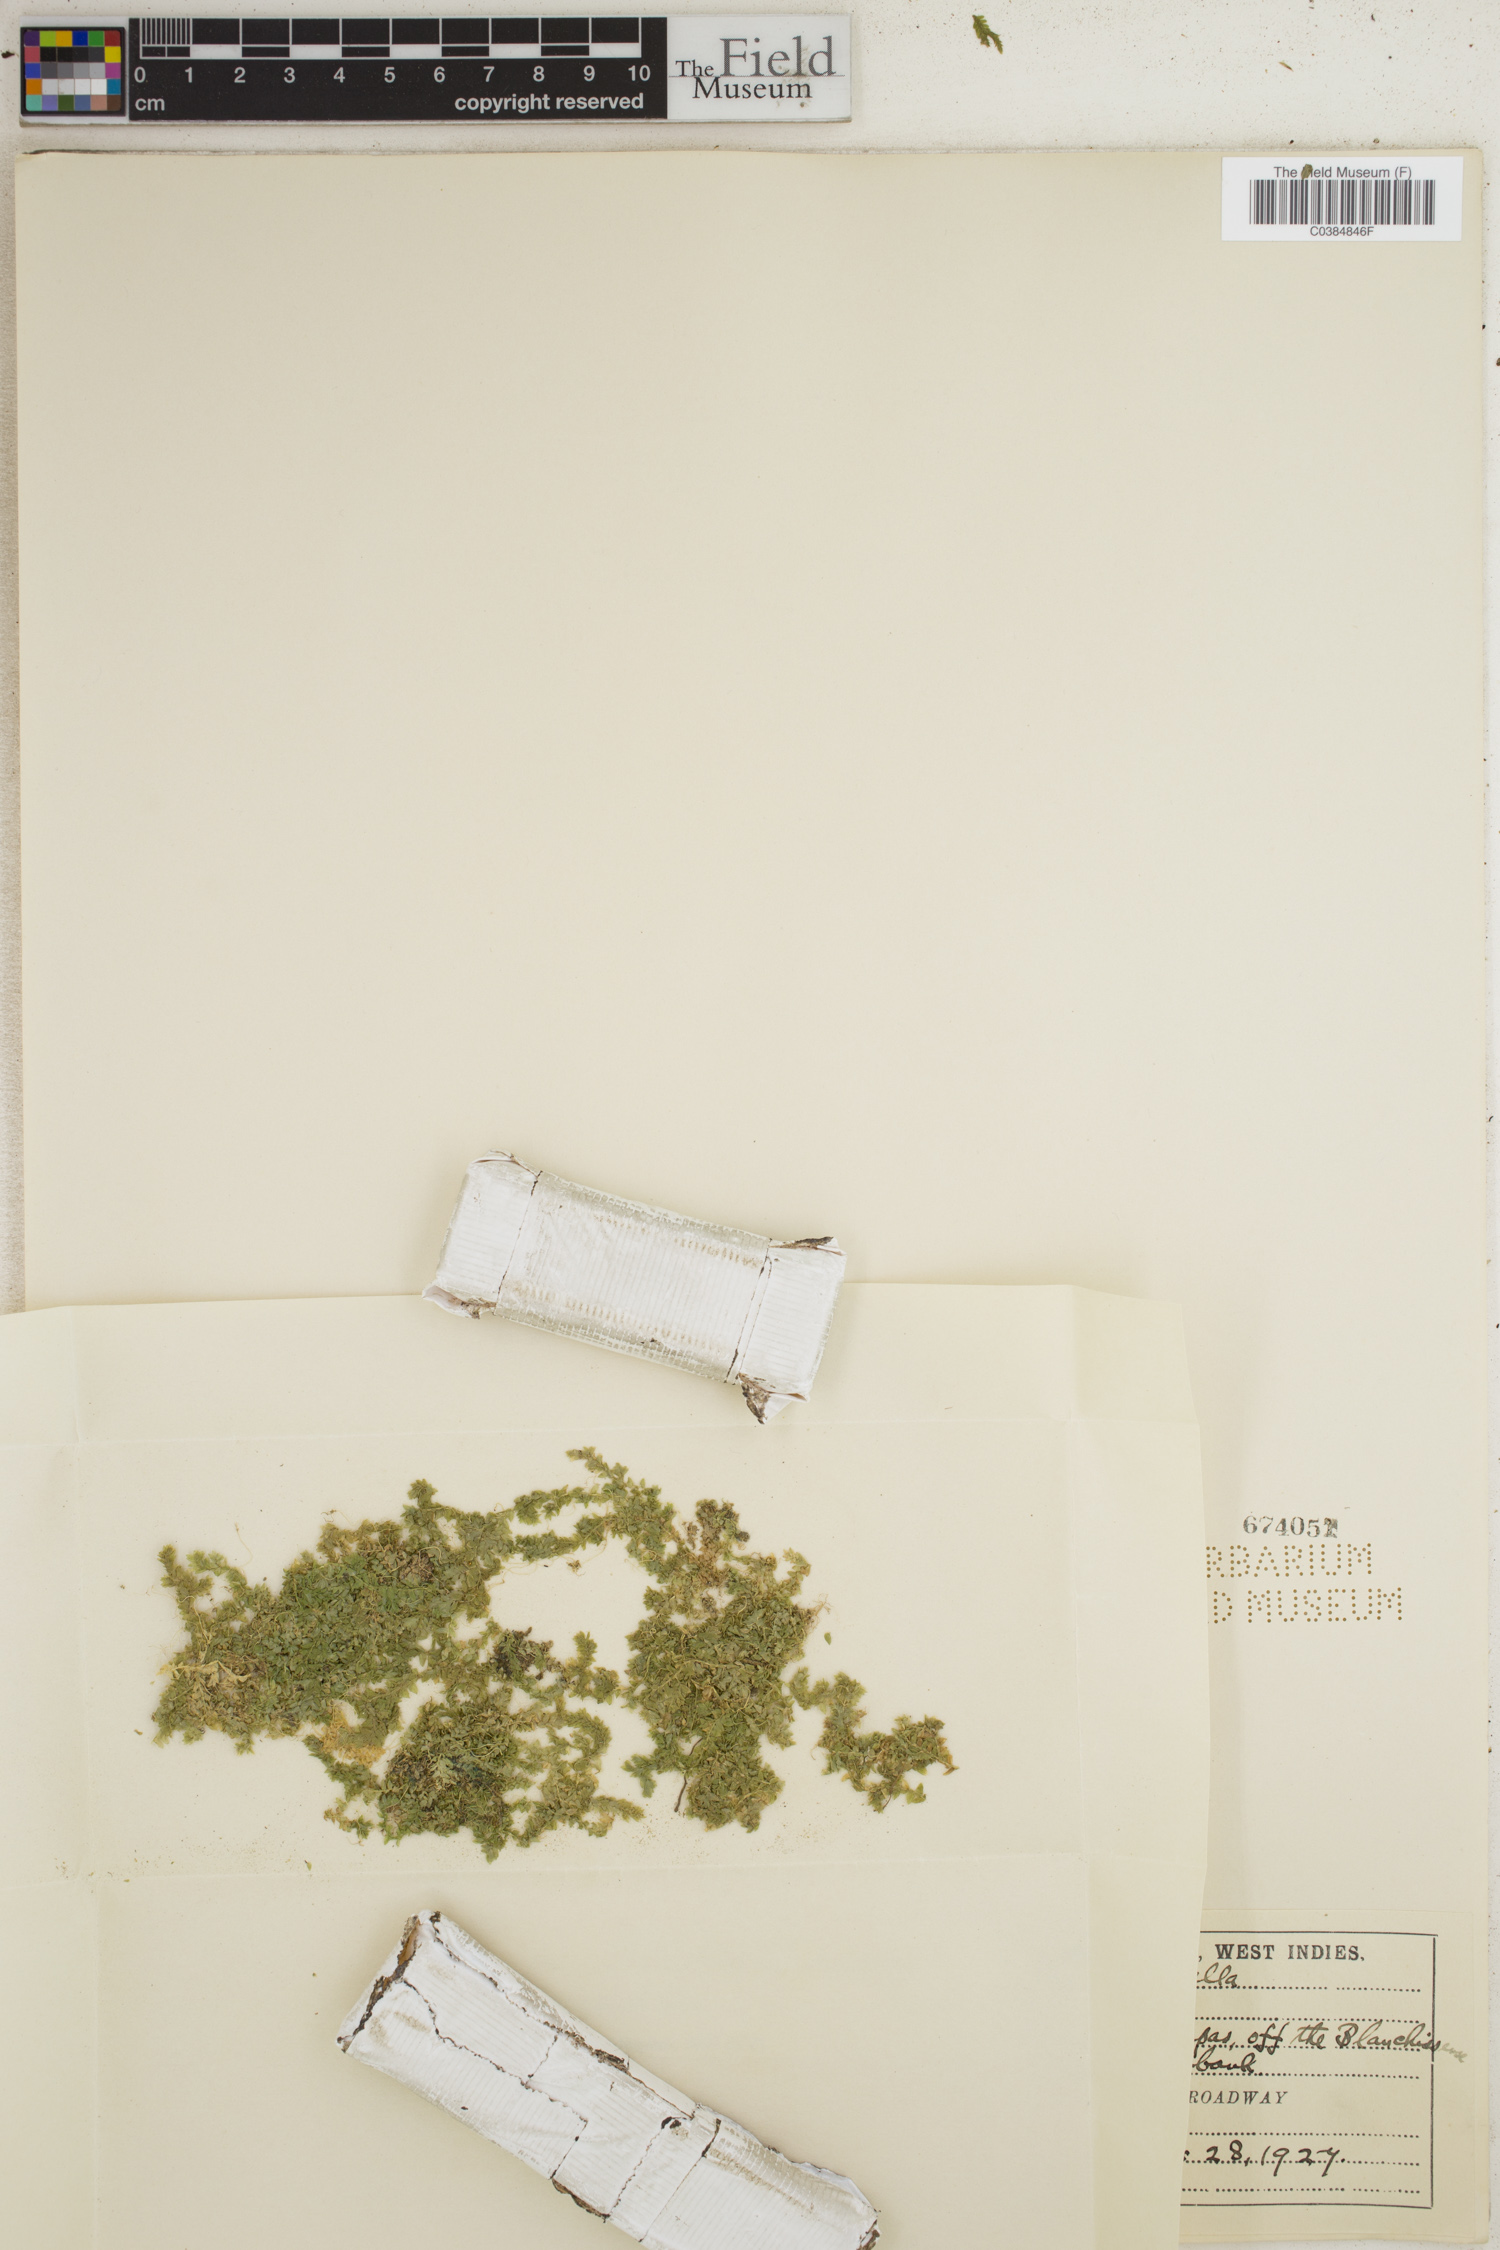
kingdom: Plantae
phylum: Tracheophyta
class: Lycopodiopsida
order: Selaginellales
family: Selaginellaceae
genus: Selaginella
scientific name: Selaginella muscosa
